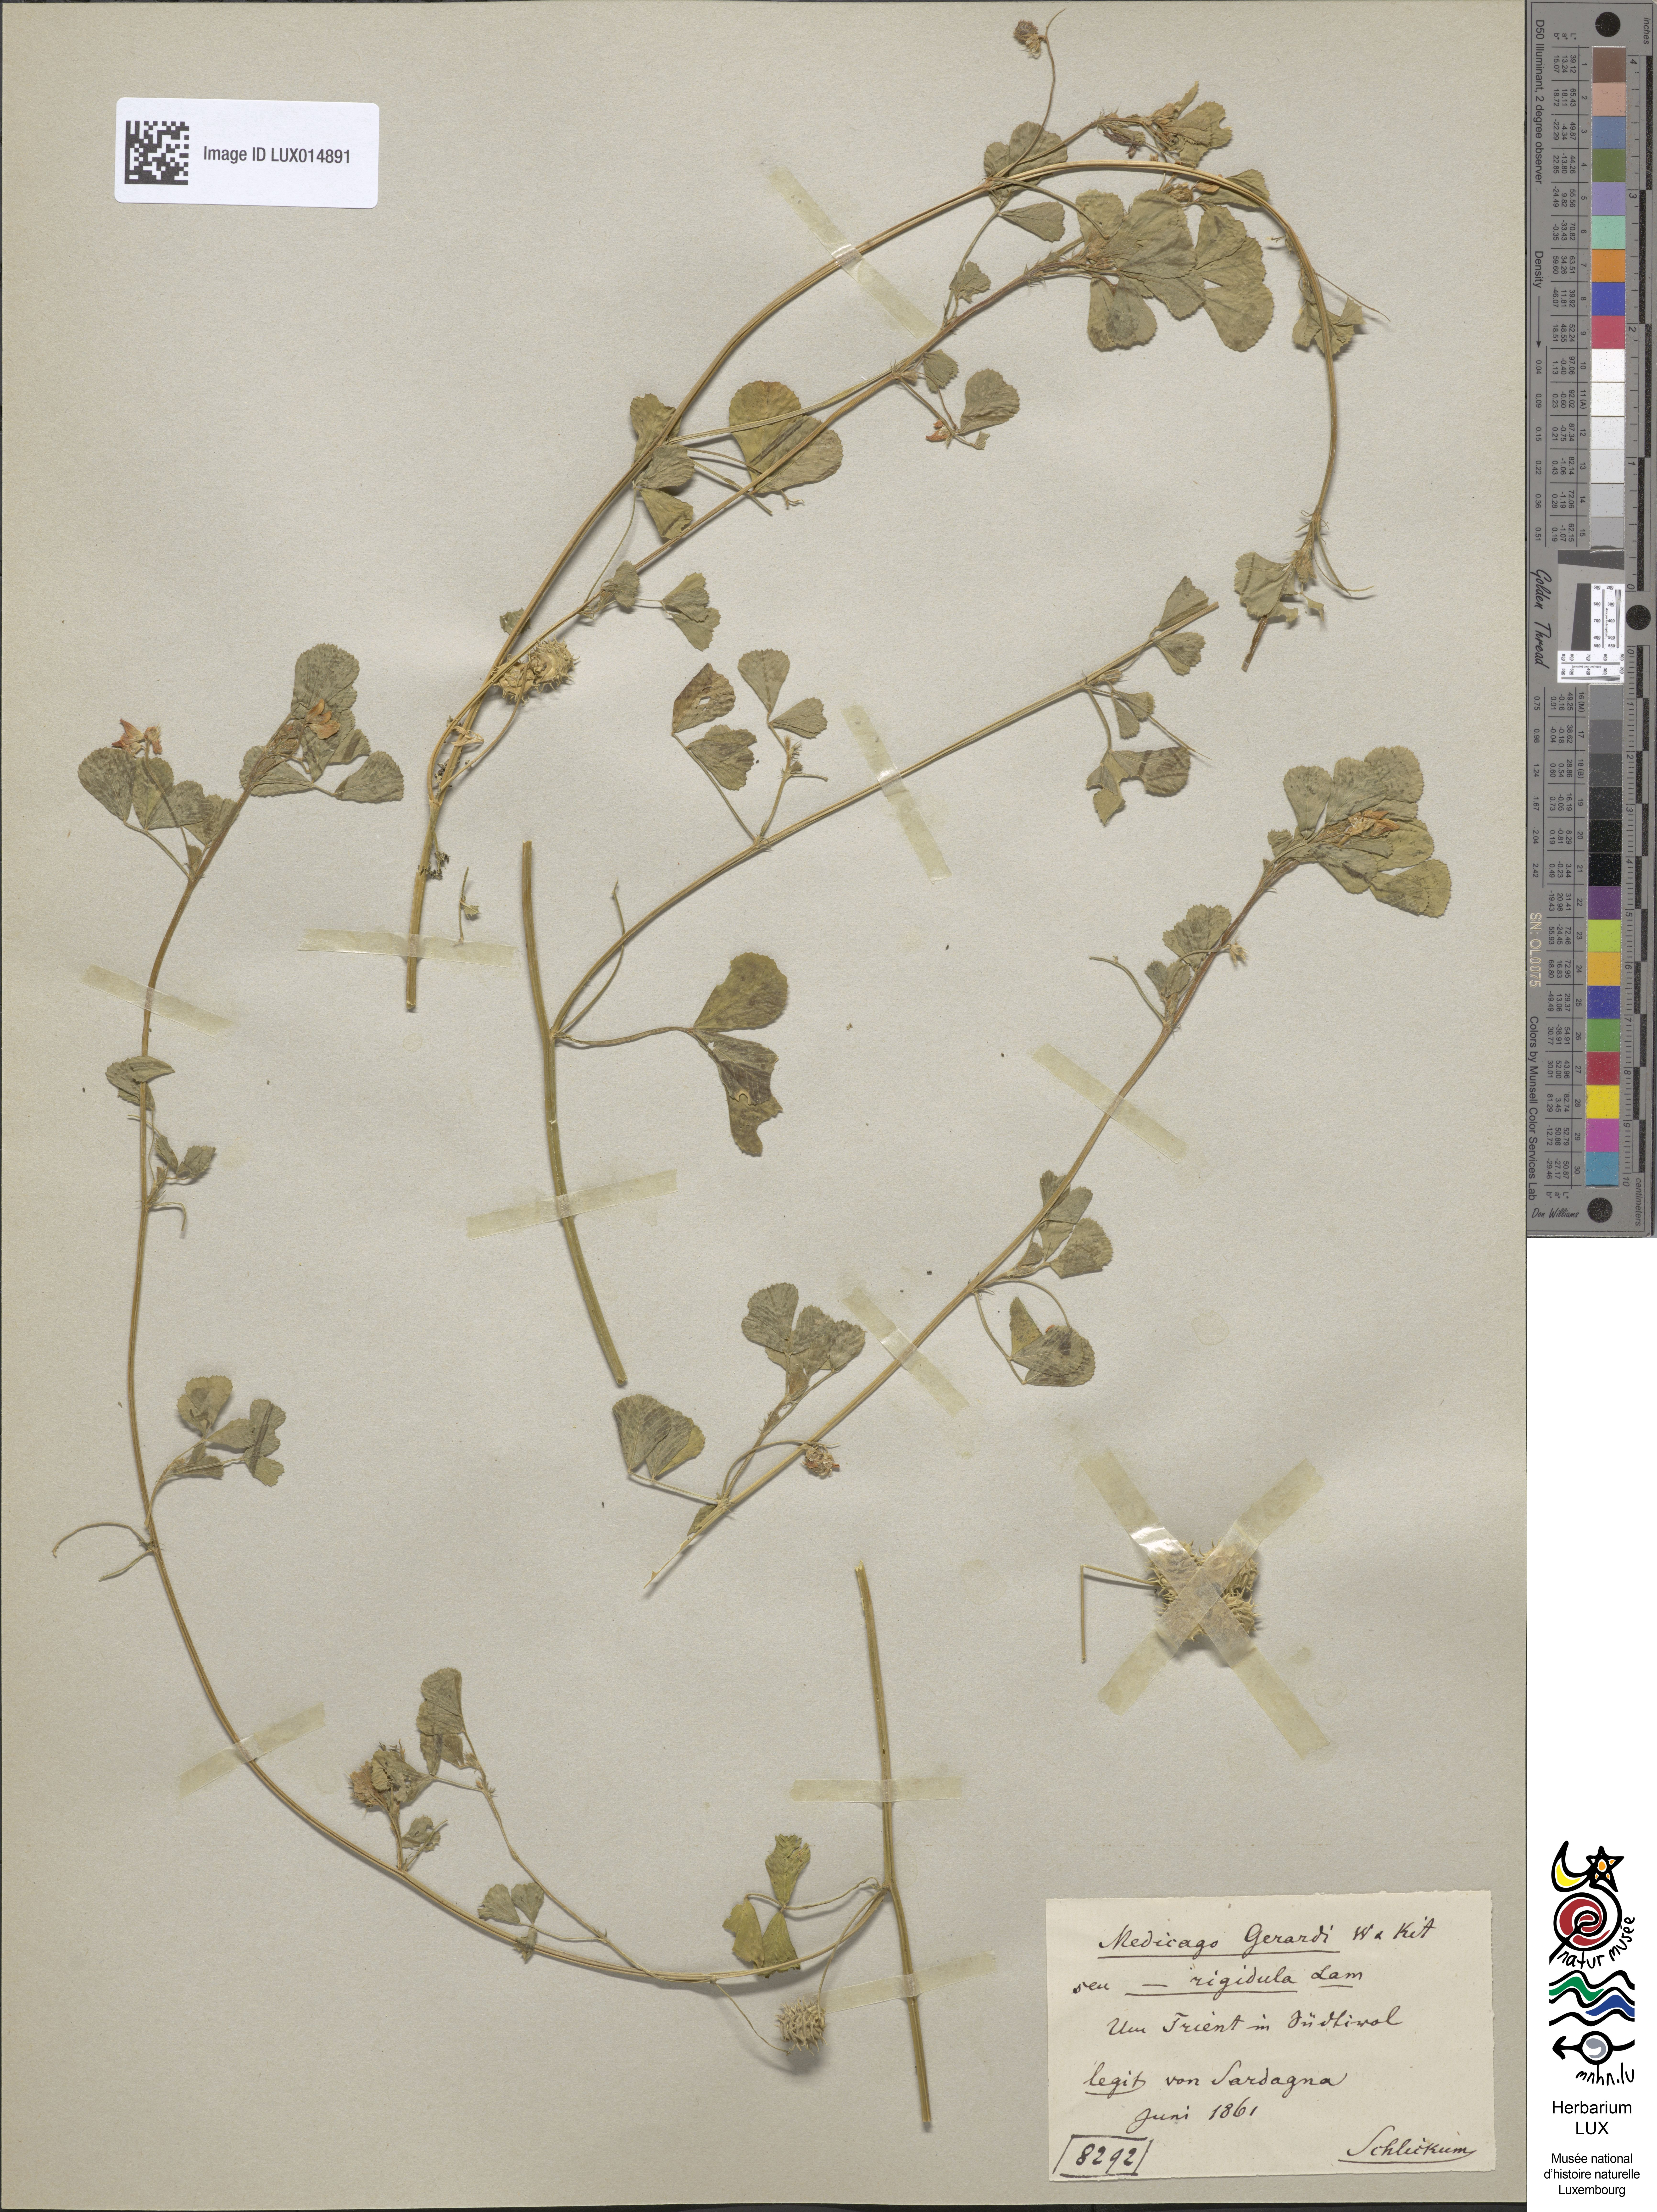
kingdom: Plantae
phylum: Tracheophyta
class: Magnoliopsida
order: Fabales
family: Fabaceae
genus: Medicago
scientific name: Medicago rigidula
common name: Tifton medic
